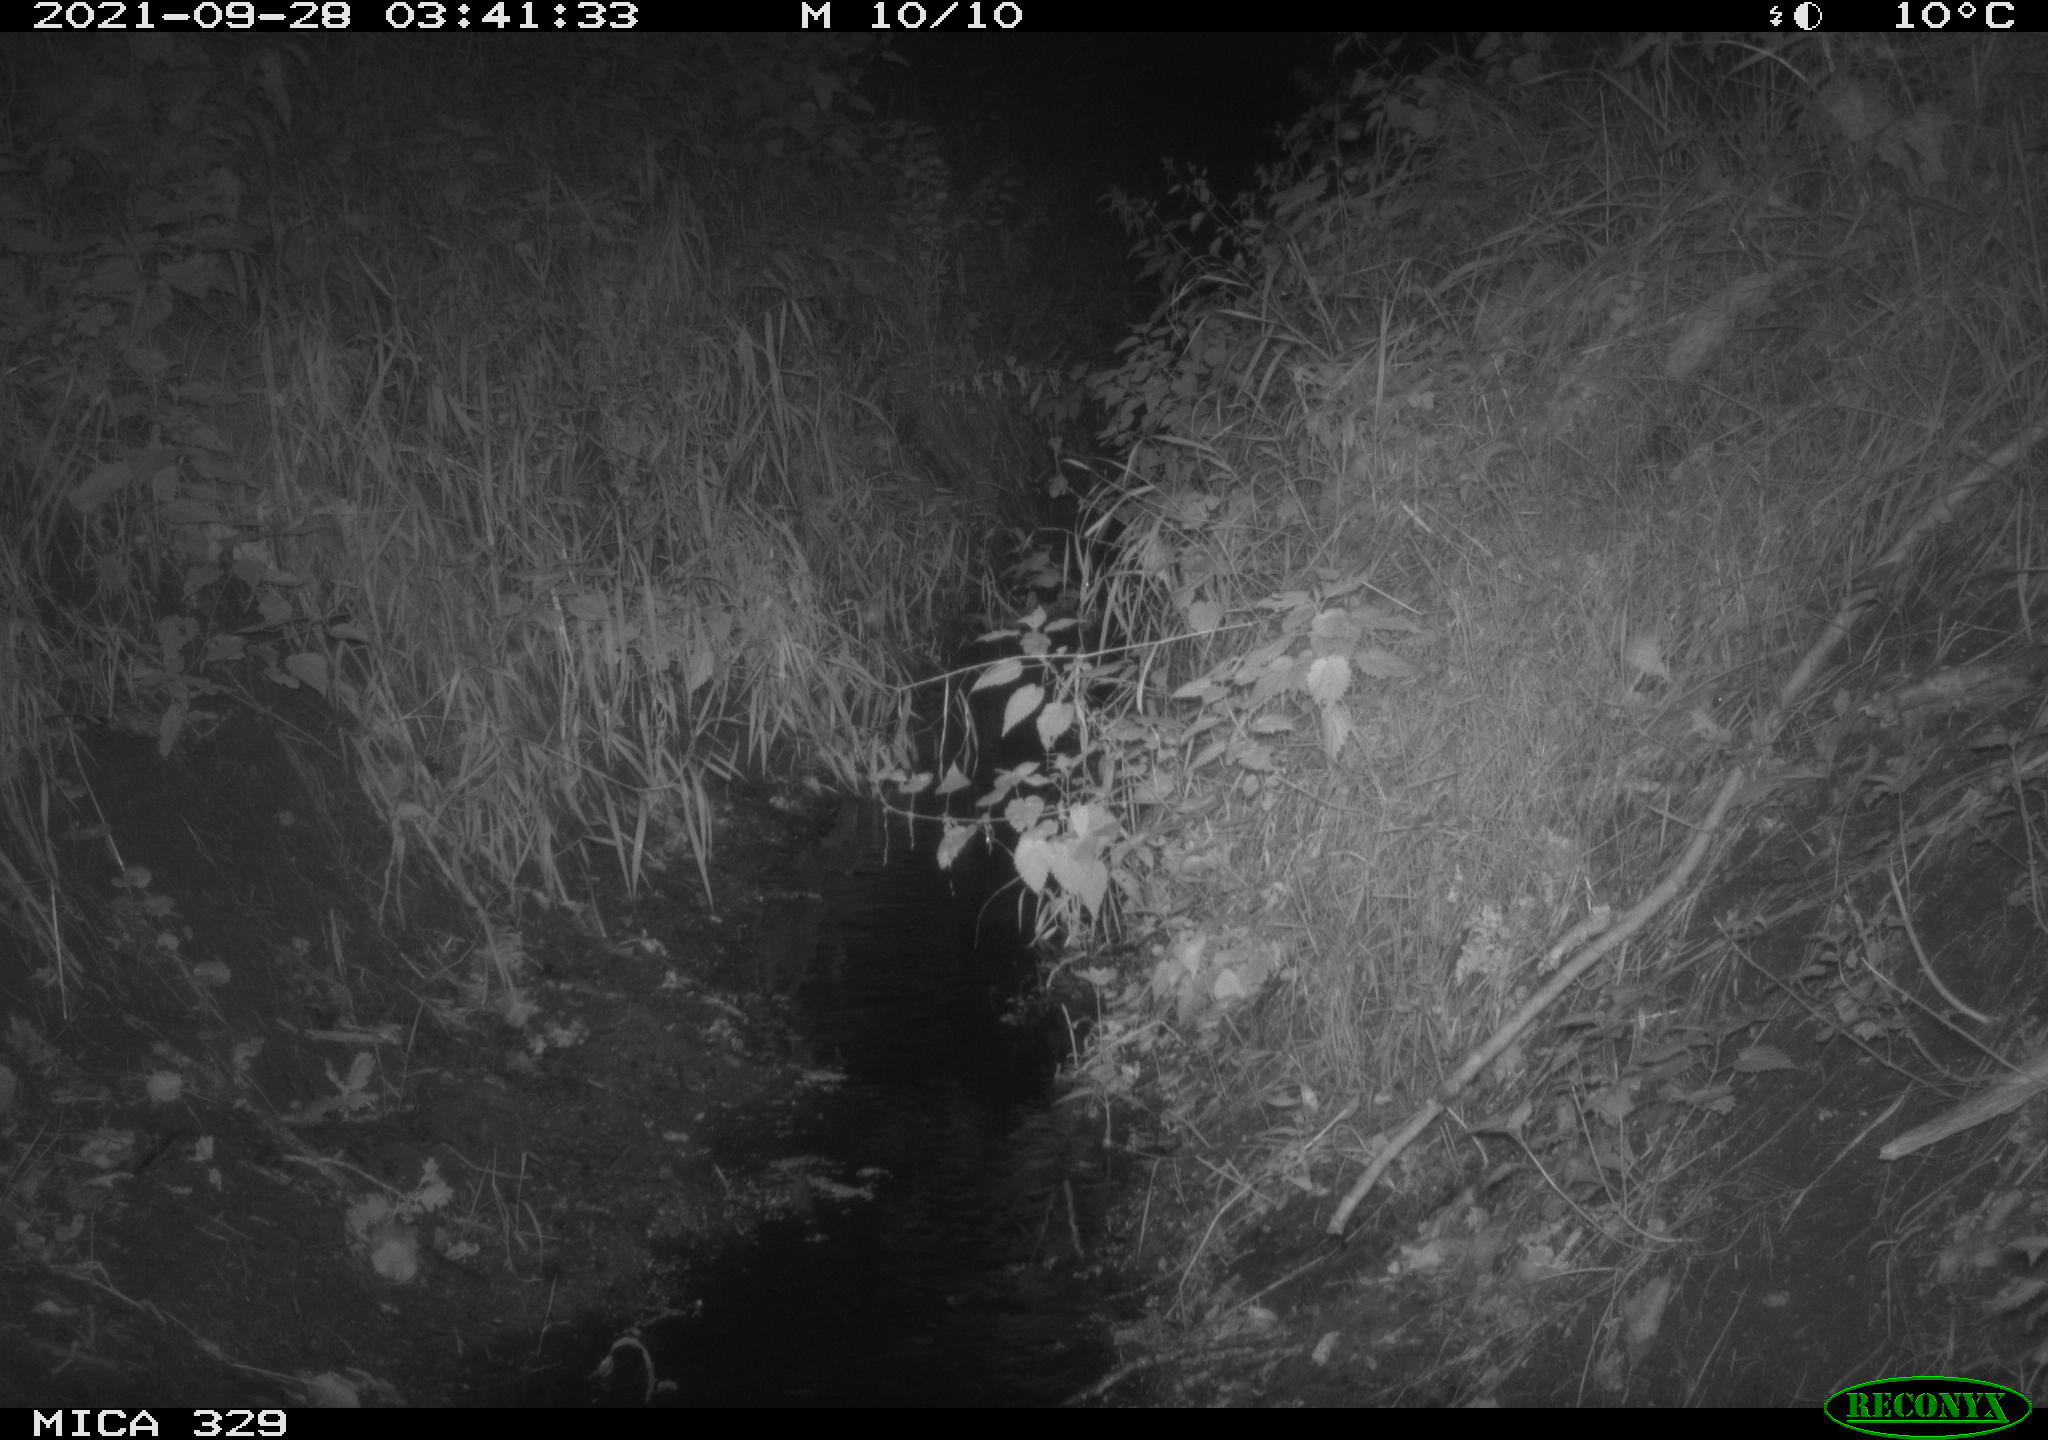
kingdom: Animalia
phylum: Chordata
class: Mammalia
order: Carnivora
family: Mustelidae
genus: Martes
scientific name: Martes foina
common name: Beech marten
